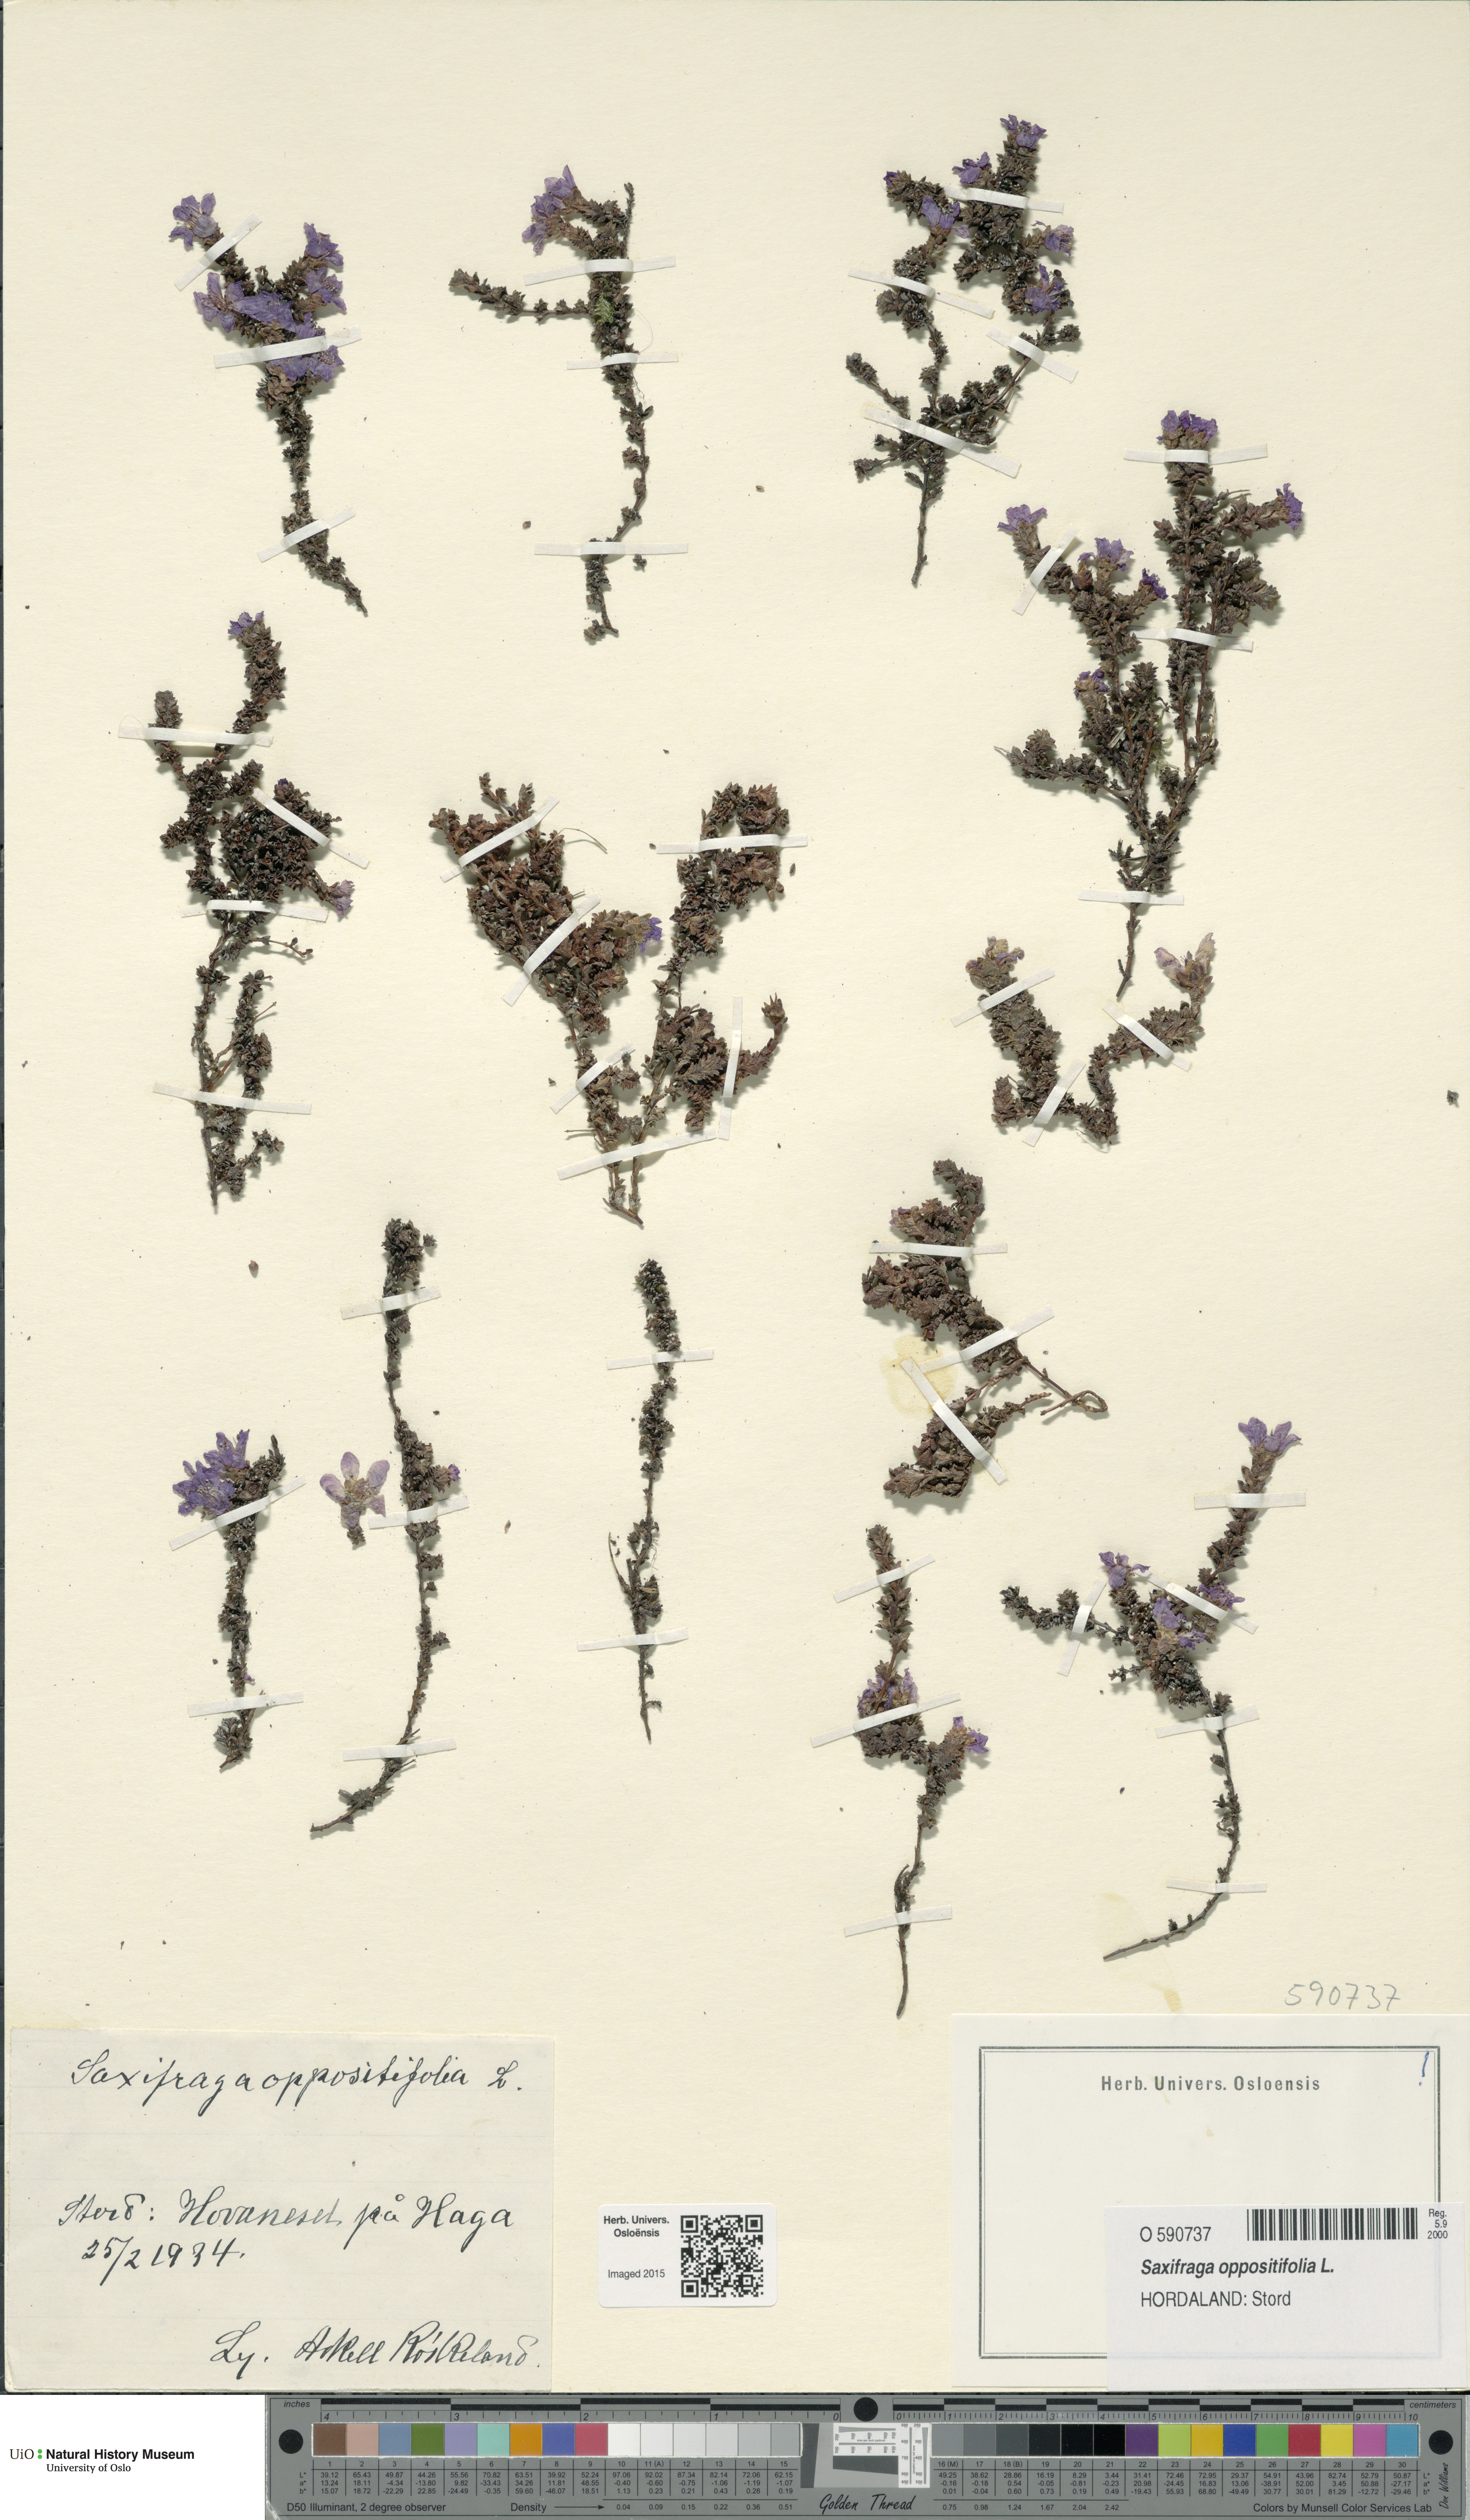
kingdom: Plantae
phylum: Tracheophyta
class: Magnoliopsida
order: Saxifragales
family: Saxifragaceae
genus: Saxifraga
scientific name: Saxifraga oppositifolia
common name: Purple saxifrage
